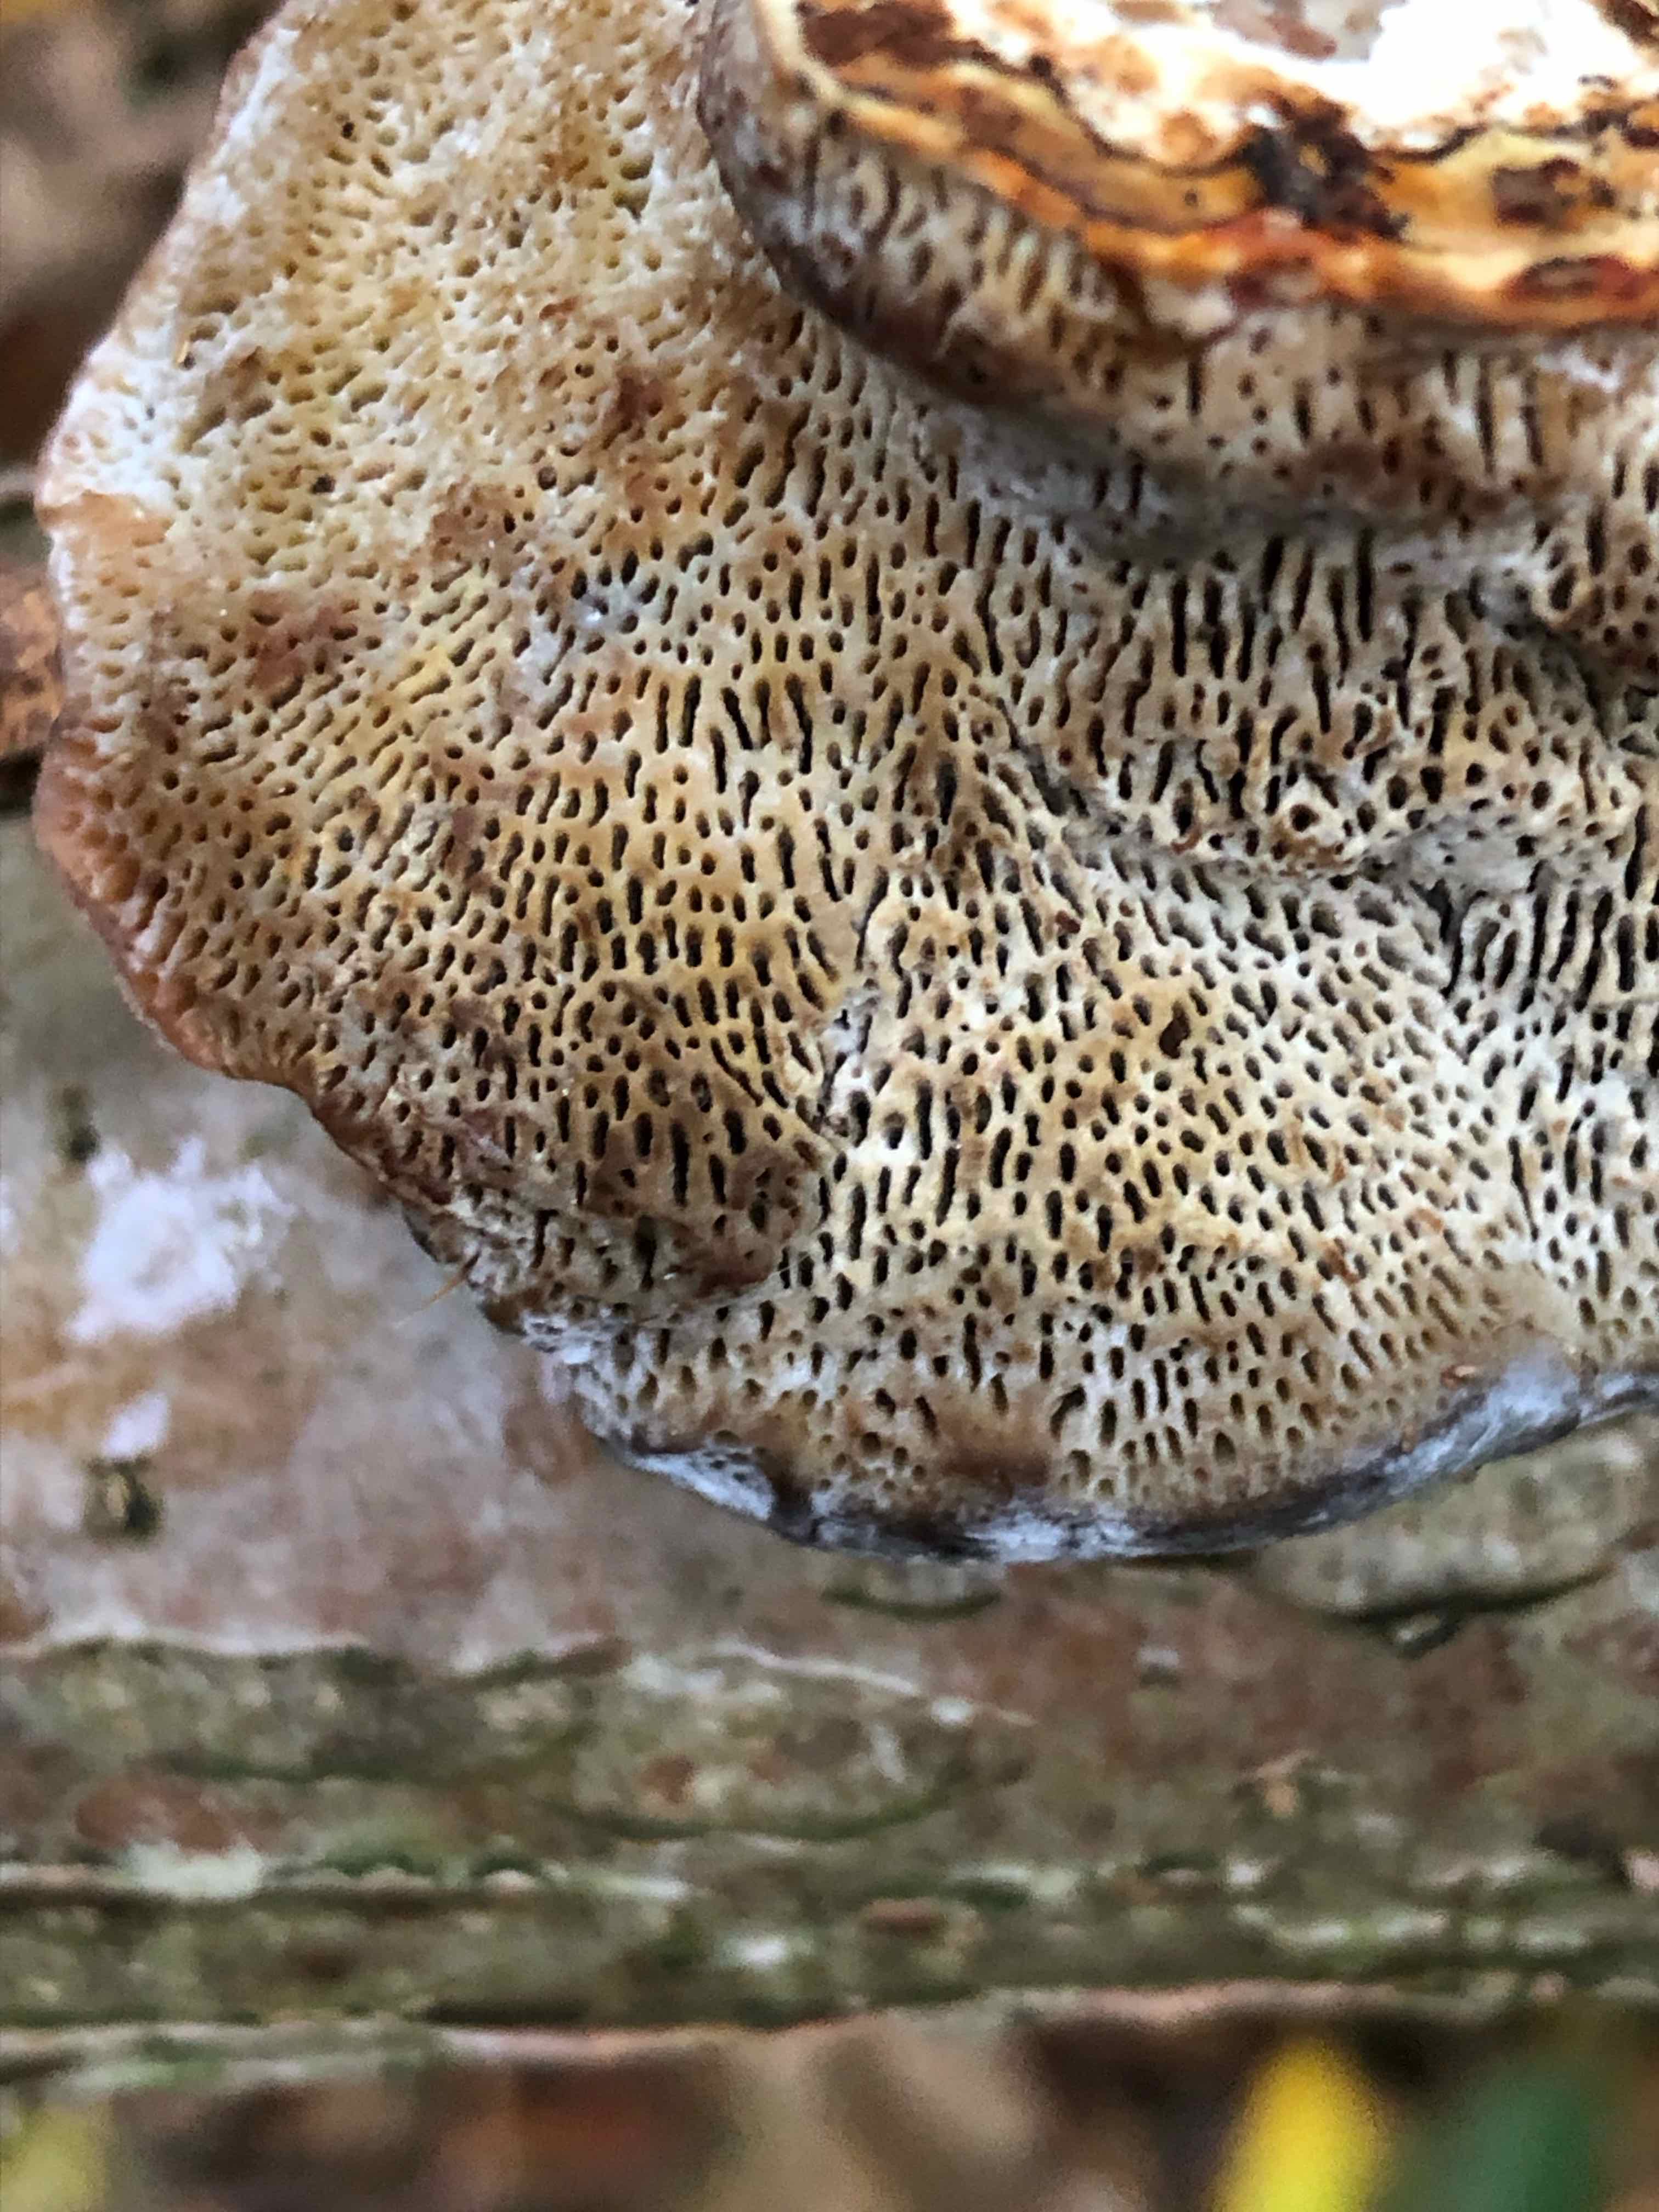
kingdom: Fungi
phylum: Basidiomycota
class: Agaricomycetes
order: Hymenochaetales
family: Hymenochaetaceae
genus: Xanthoporia
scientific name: Xanthoporia radiata
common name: elle-spejlporesvamp
